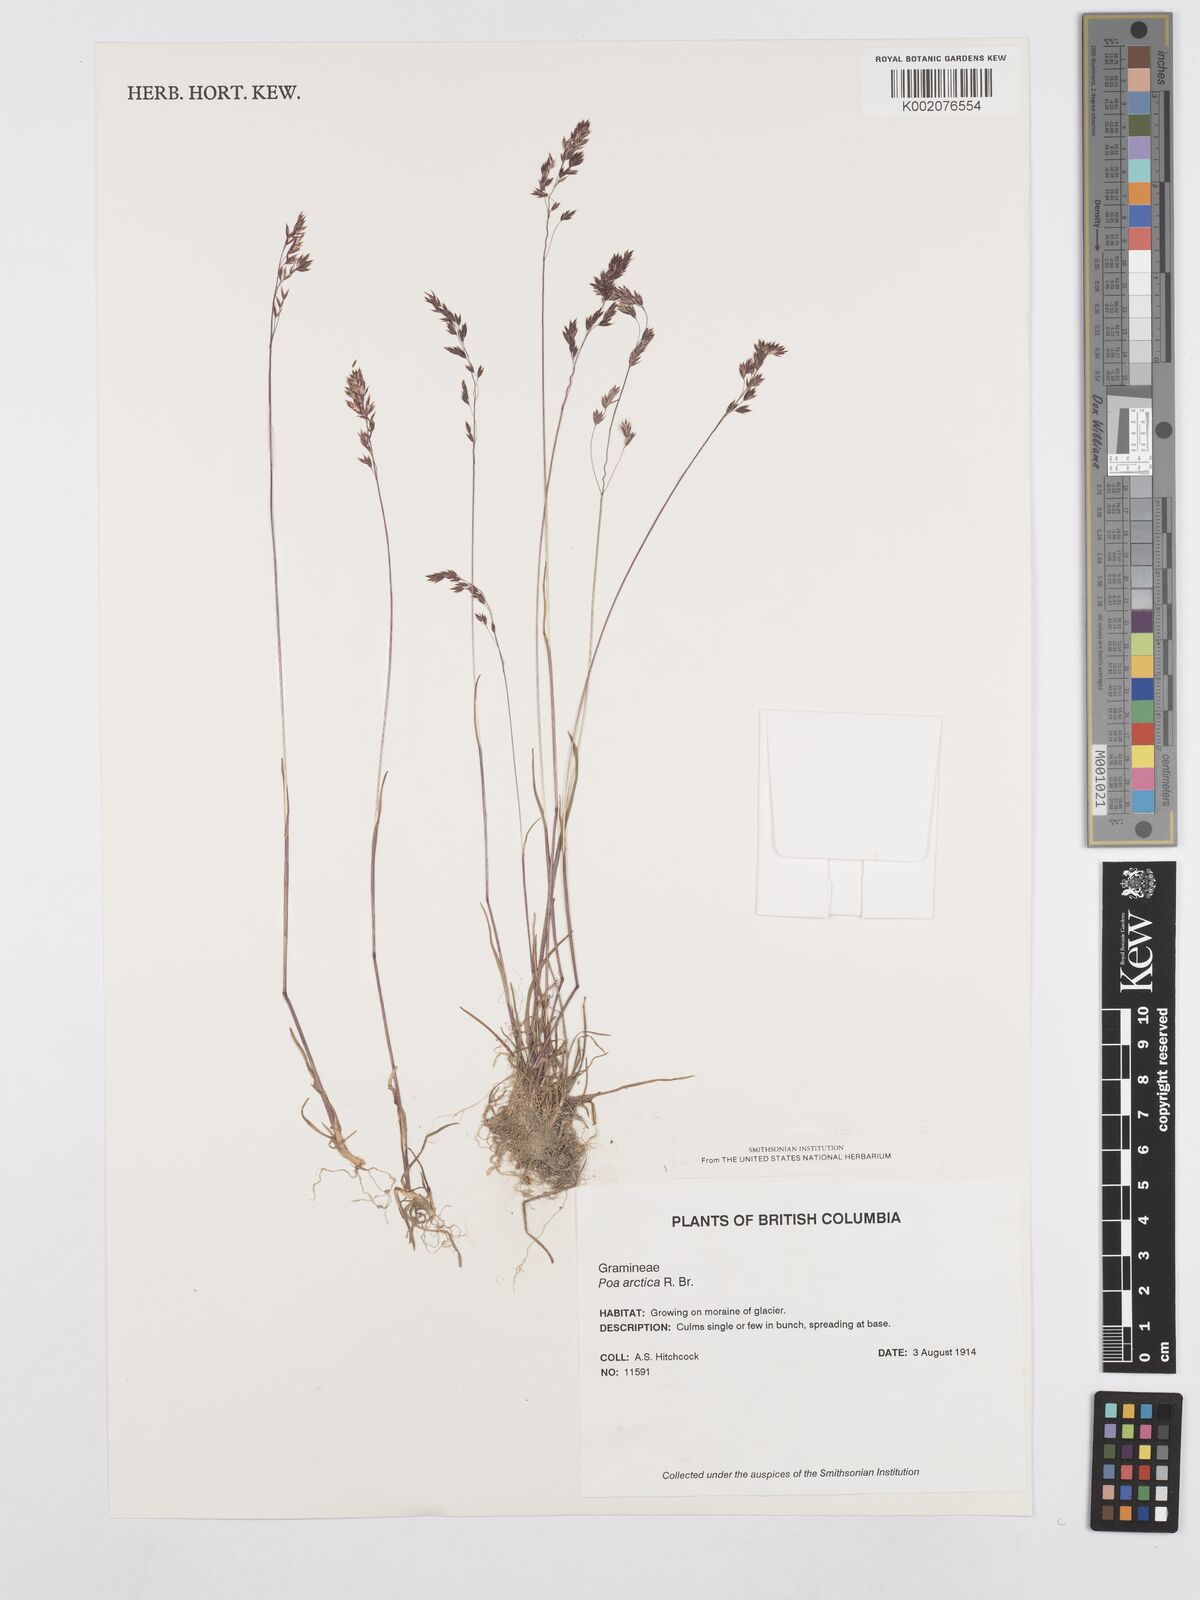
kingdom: Plantae
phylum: Tracheophyta
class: Liliopsida
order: Poales
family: Poaceae
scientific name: Poaceae
